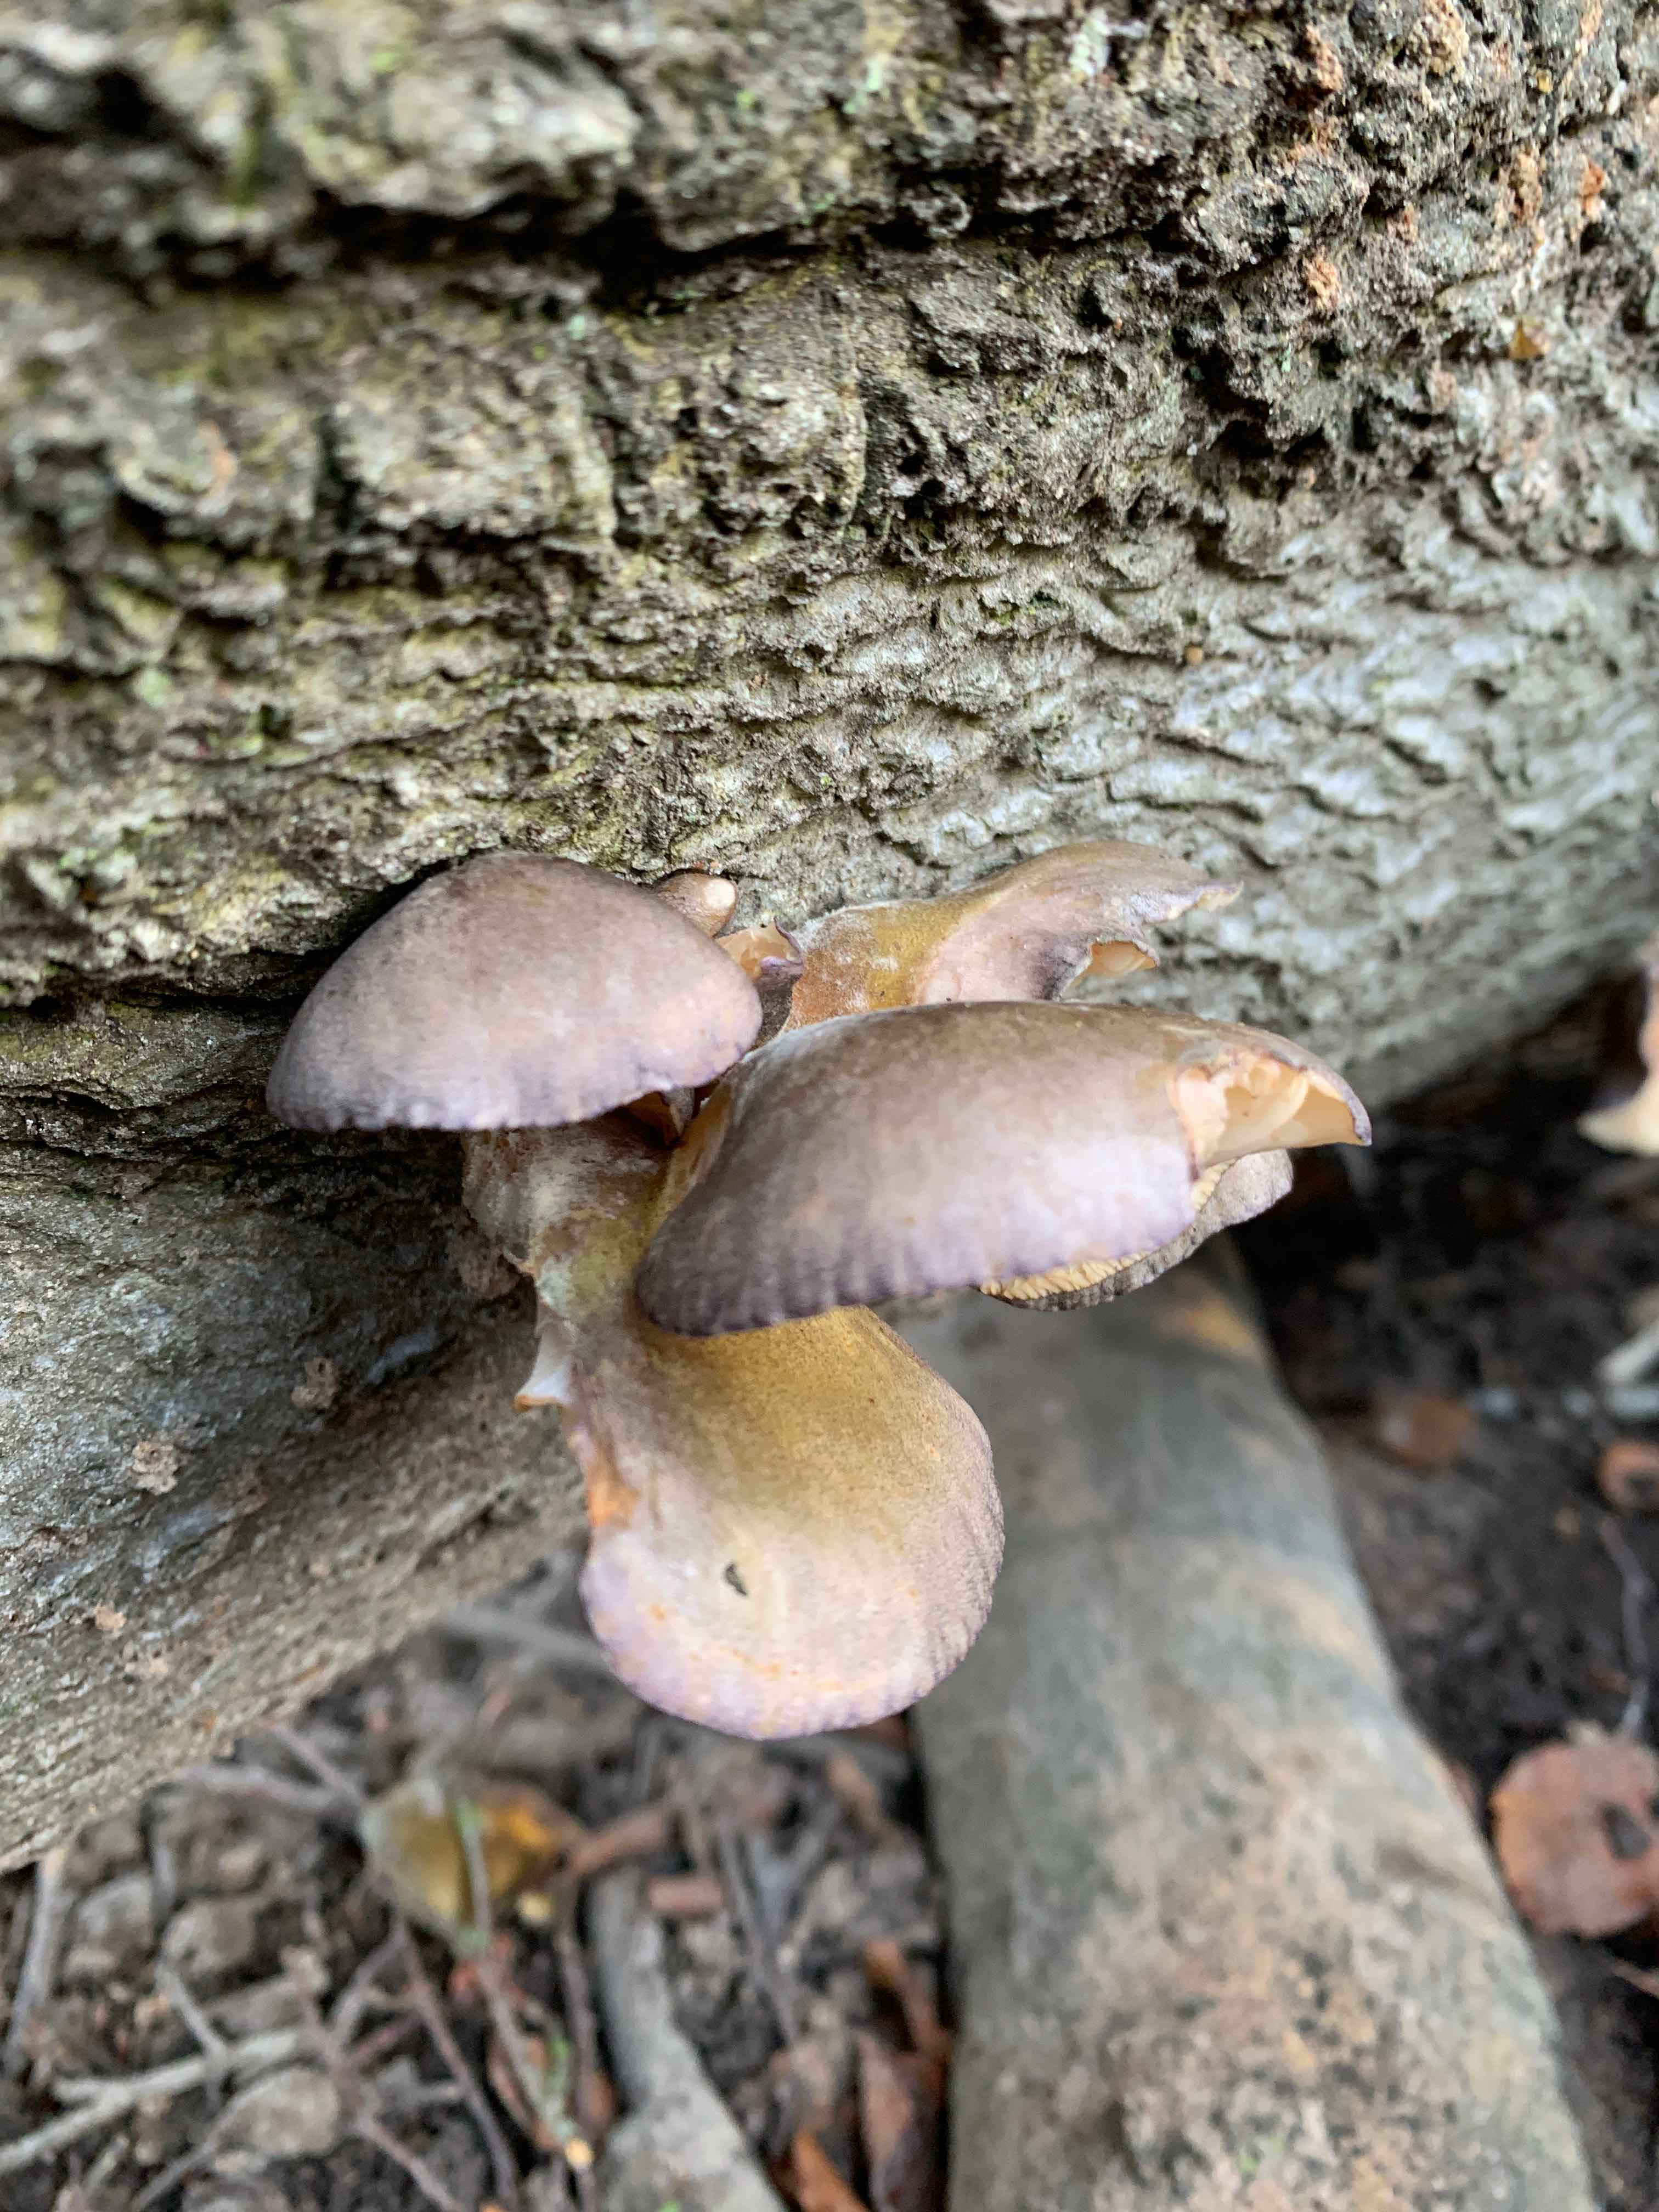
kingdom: Fungi
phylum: Basidiomycota
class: Agaricomycetes
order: Agaricales
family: Sarcomyxaceae
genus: Sarcomyxa
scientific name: Sarcomyxa serotina
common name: gummihat
